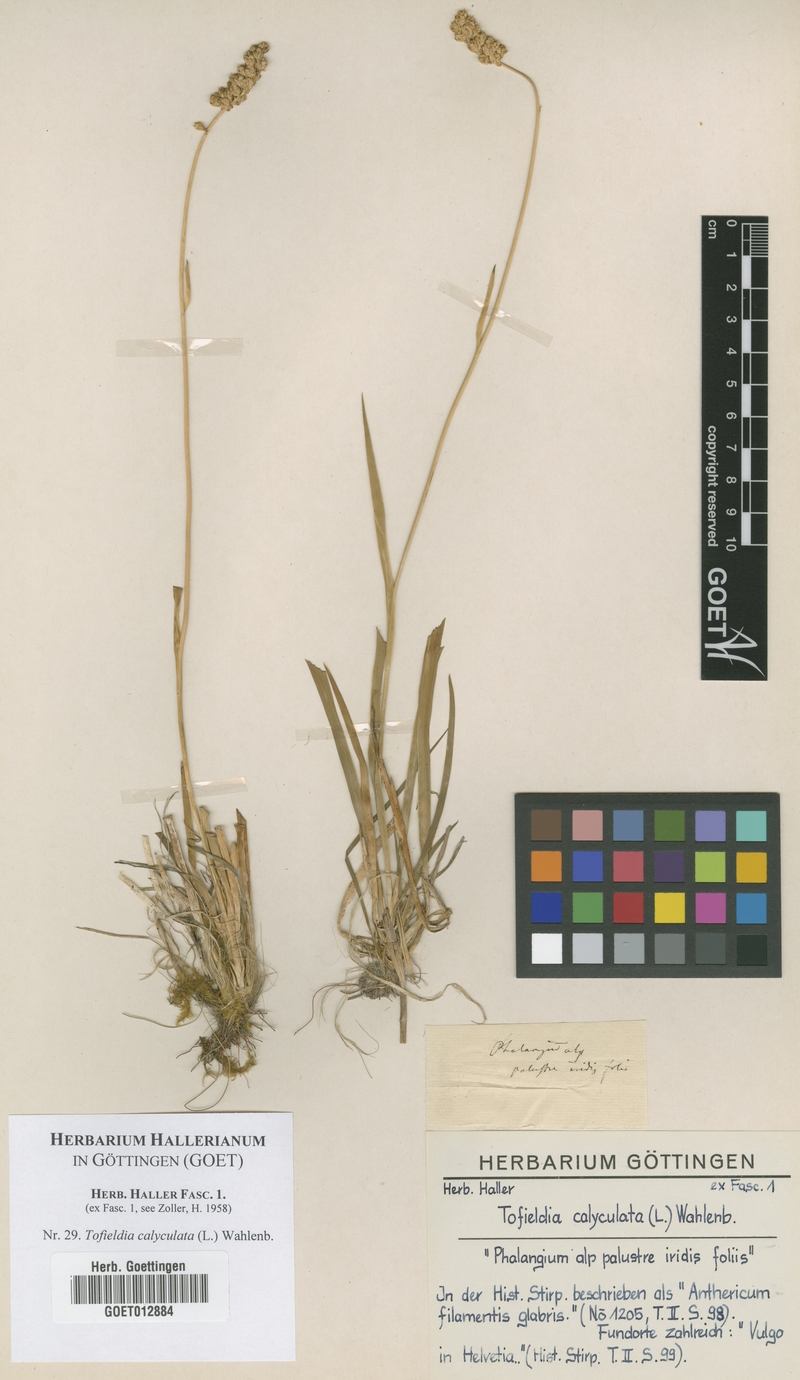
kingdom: Plantae
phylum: Tracheophyta
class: Liliopsida
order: Alismatales
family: Tofieldiaceae
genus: Tofieldia
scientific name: Tofieldia calyculata
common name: German-asphodel
